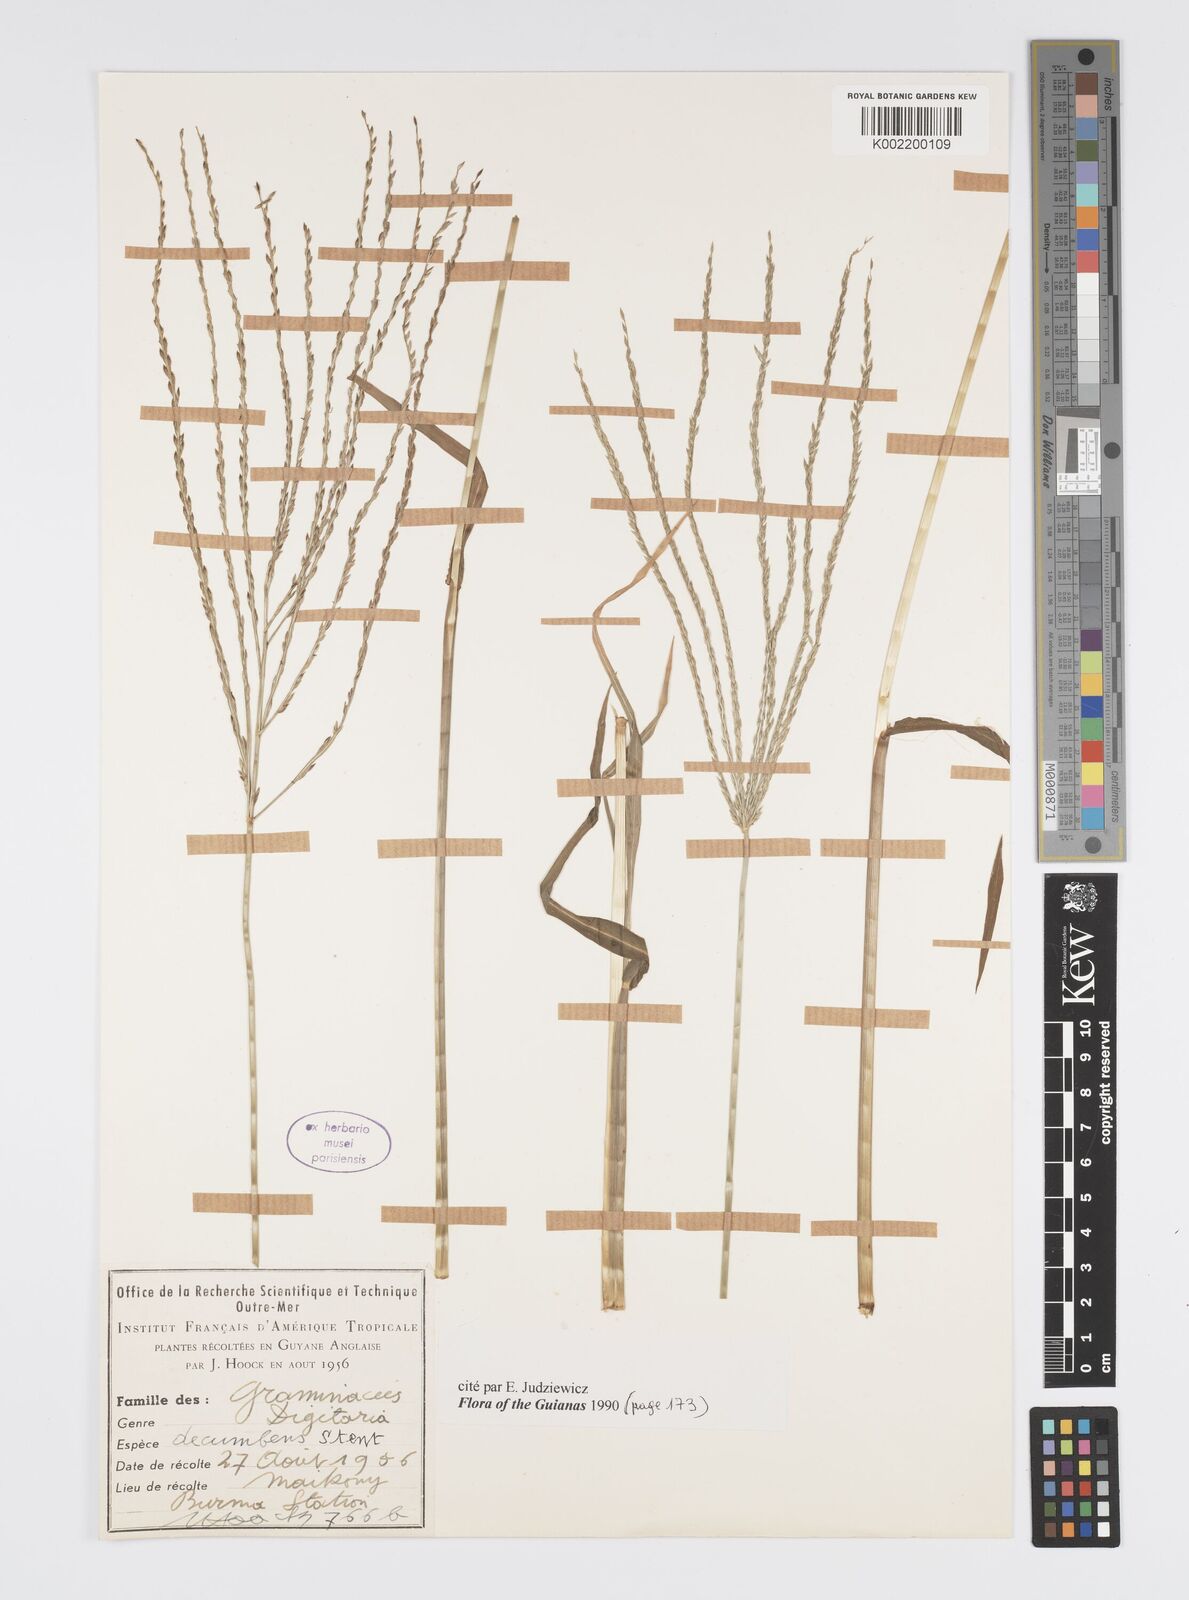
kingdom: Plantae
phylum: Tracheophyta
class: Liliopsida
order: Poales
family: Poaceae
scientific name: Poaceae
